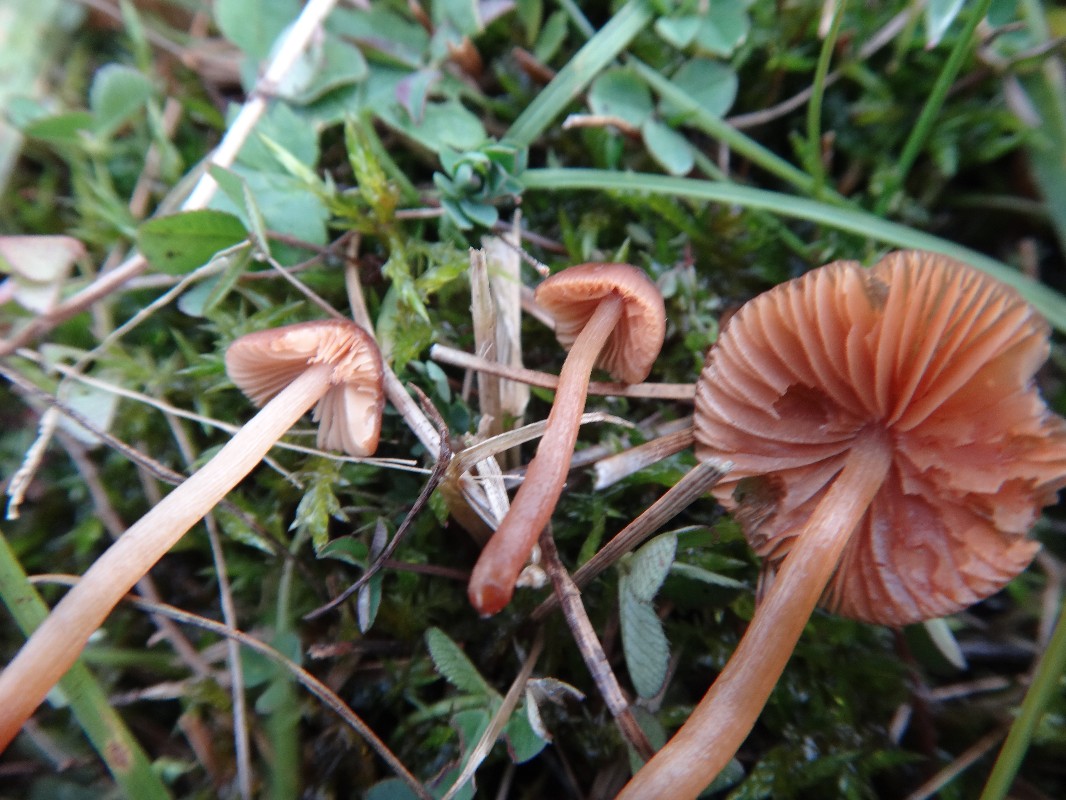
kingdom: Fungi
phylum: Basidiomycota
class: Agaricomycetes
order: Agaricales
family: Bolbitiaceae
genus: Conocybe
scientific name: Conocybe rickeniana
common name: kastaniebrun keglehat
